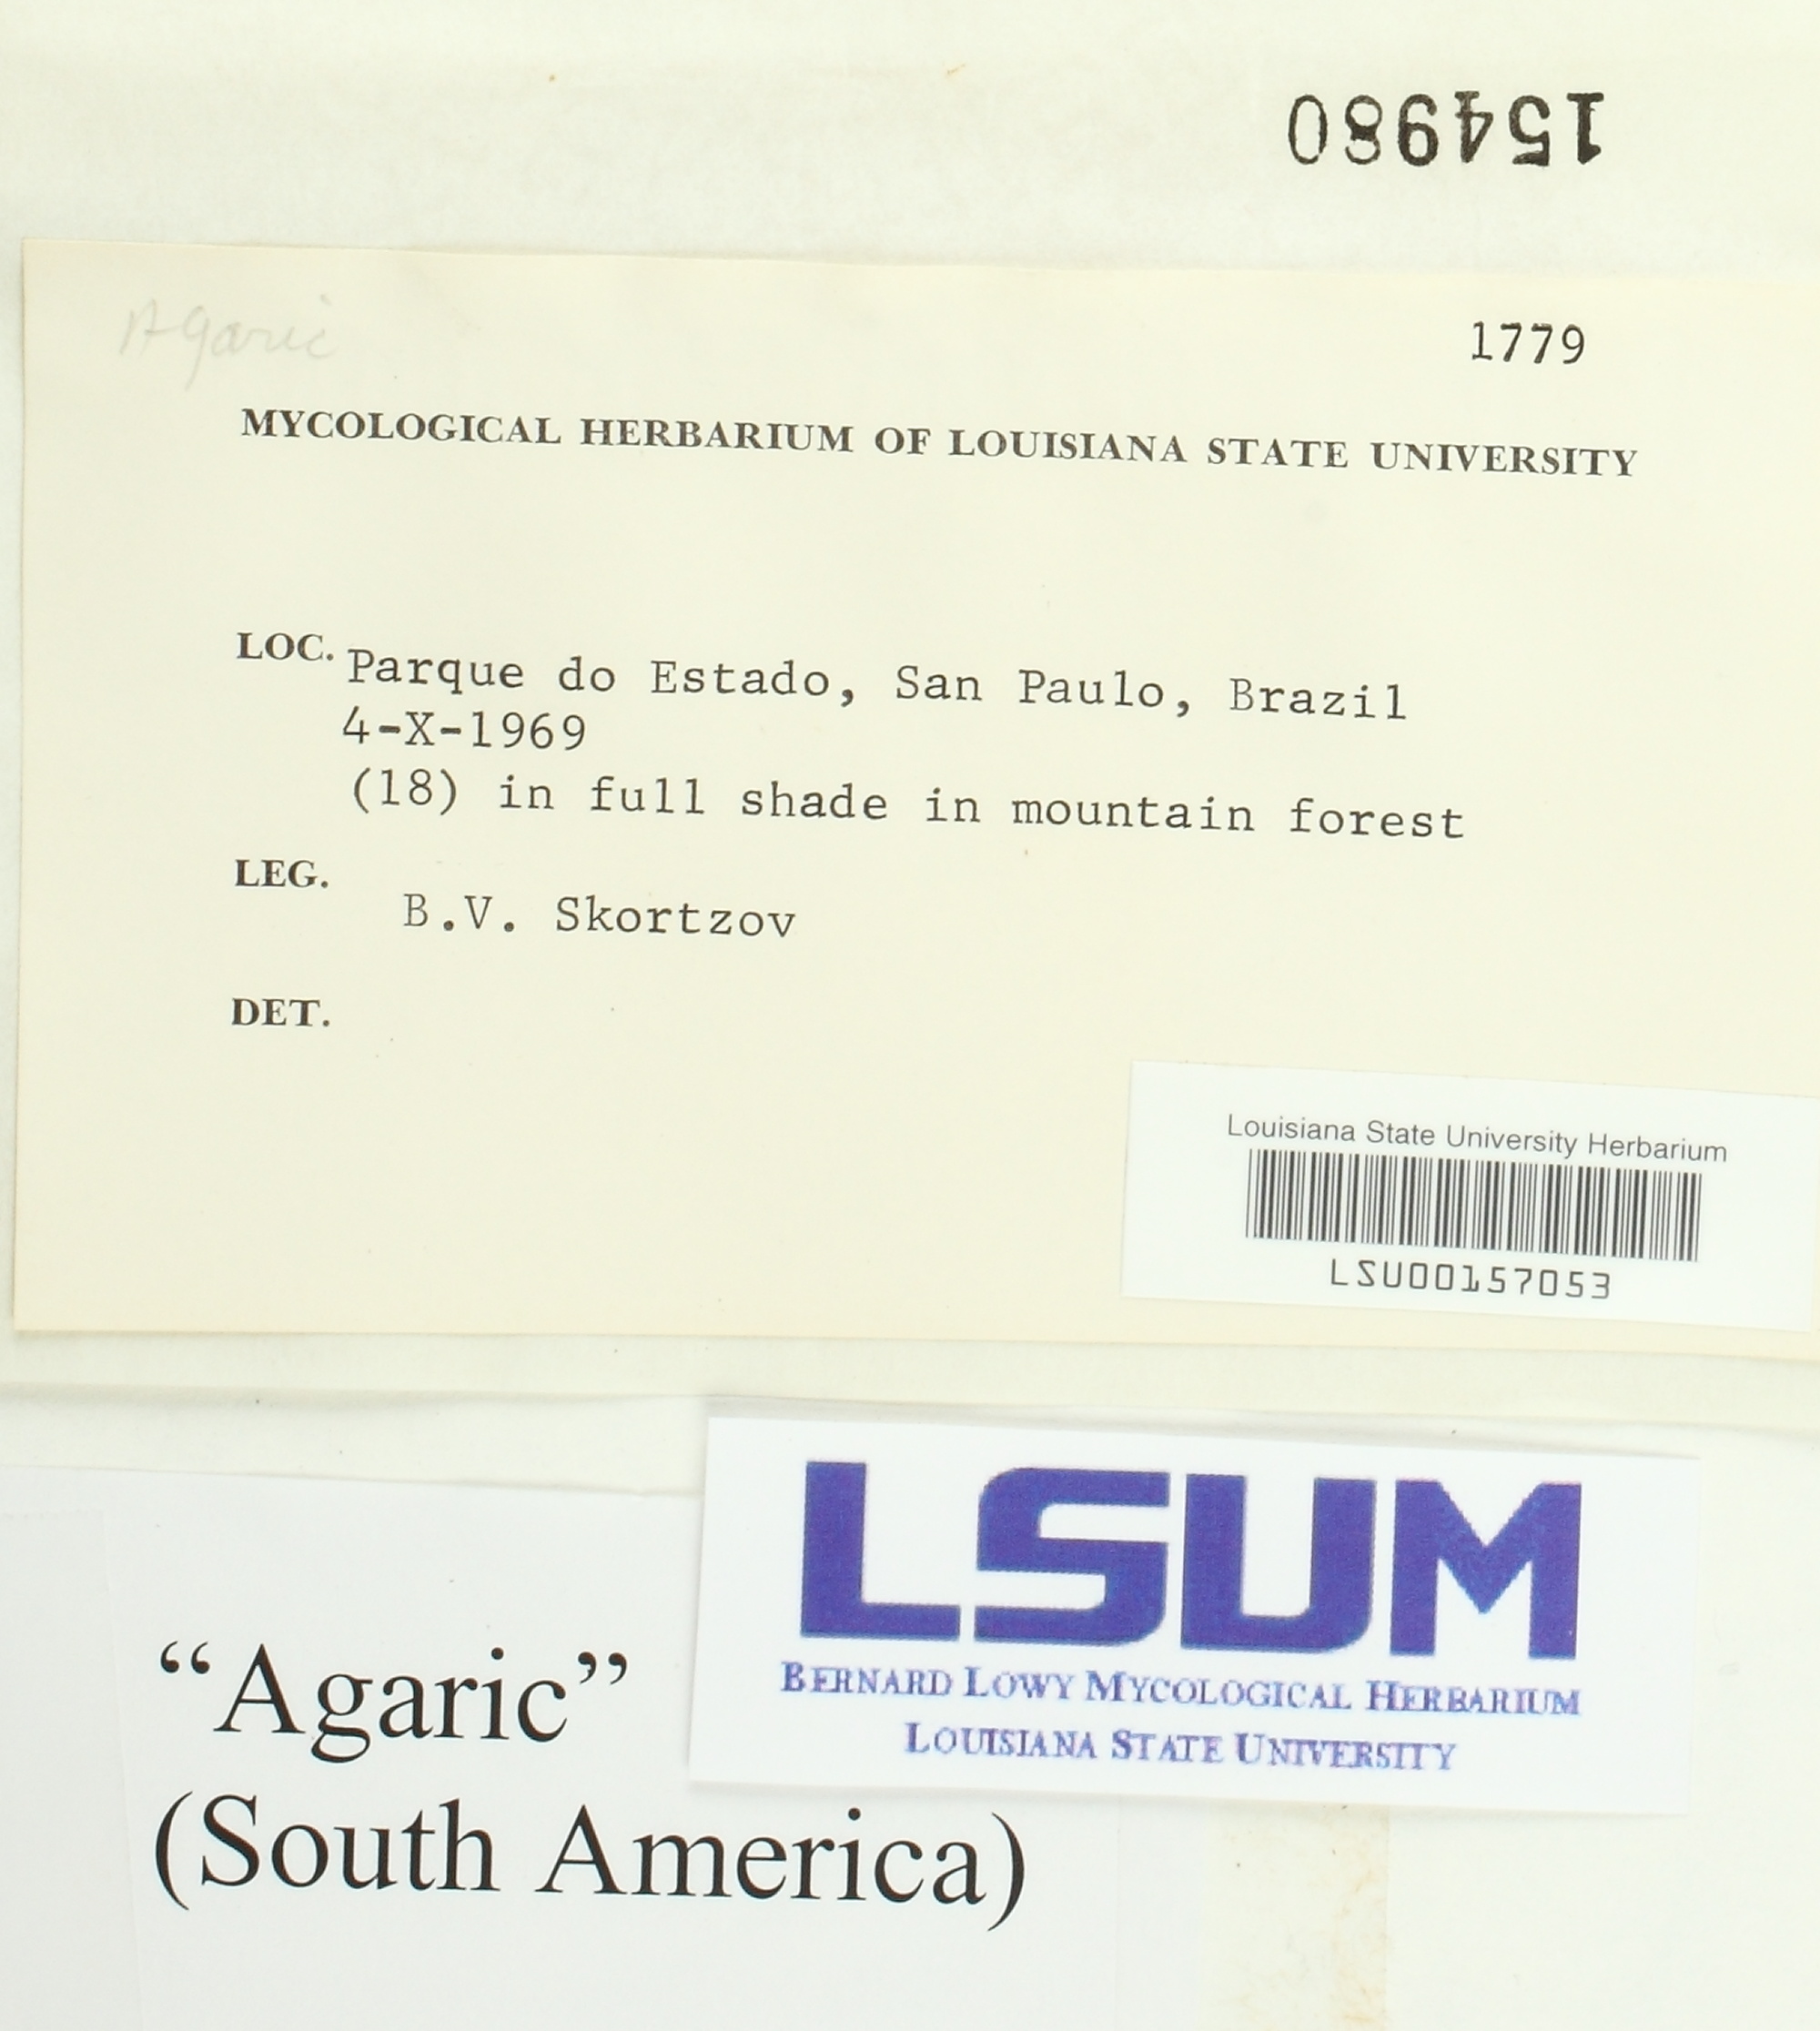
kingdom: Fungi
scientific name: Fungi
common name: Fungi
